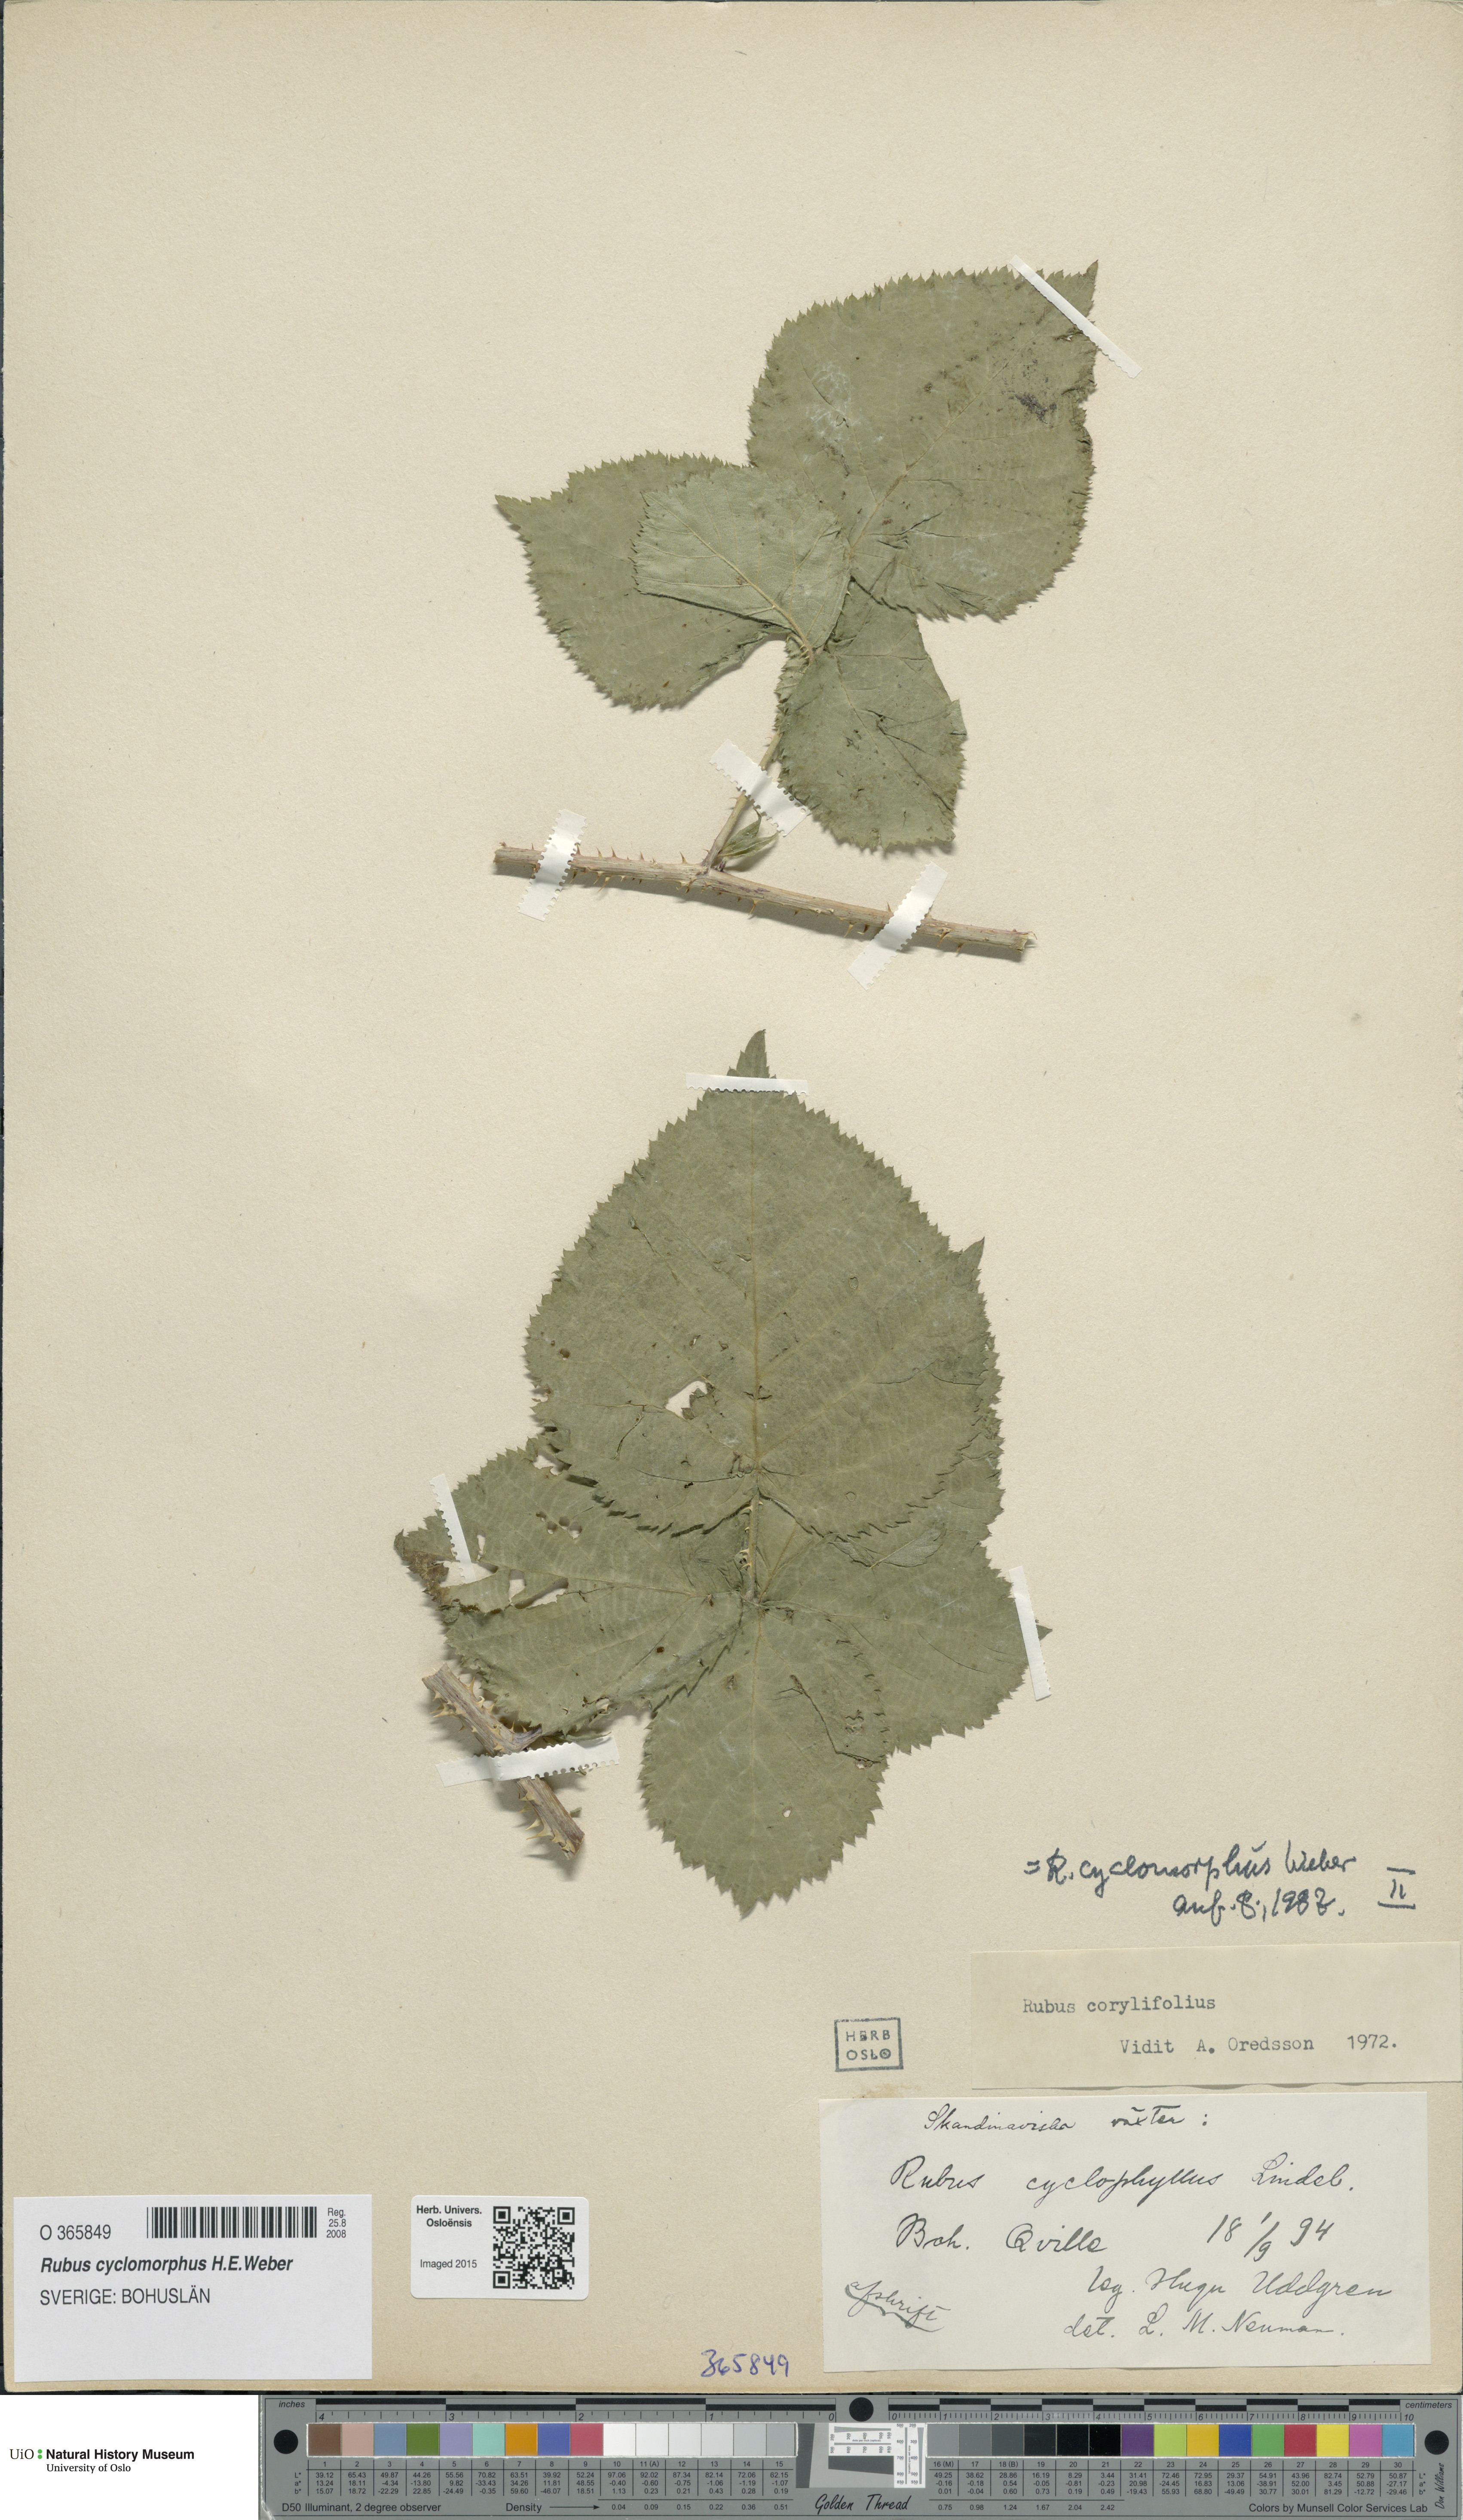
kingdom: Plantae
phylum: Tracheophyta
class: Magnoliopsida
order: Rosales
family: Rosaceae
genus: Rubus
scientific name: Rubus cyclomorphus
